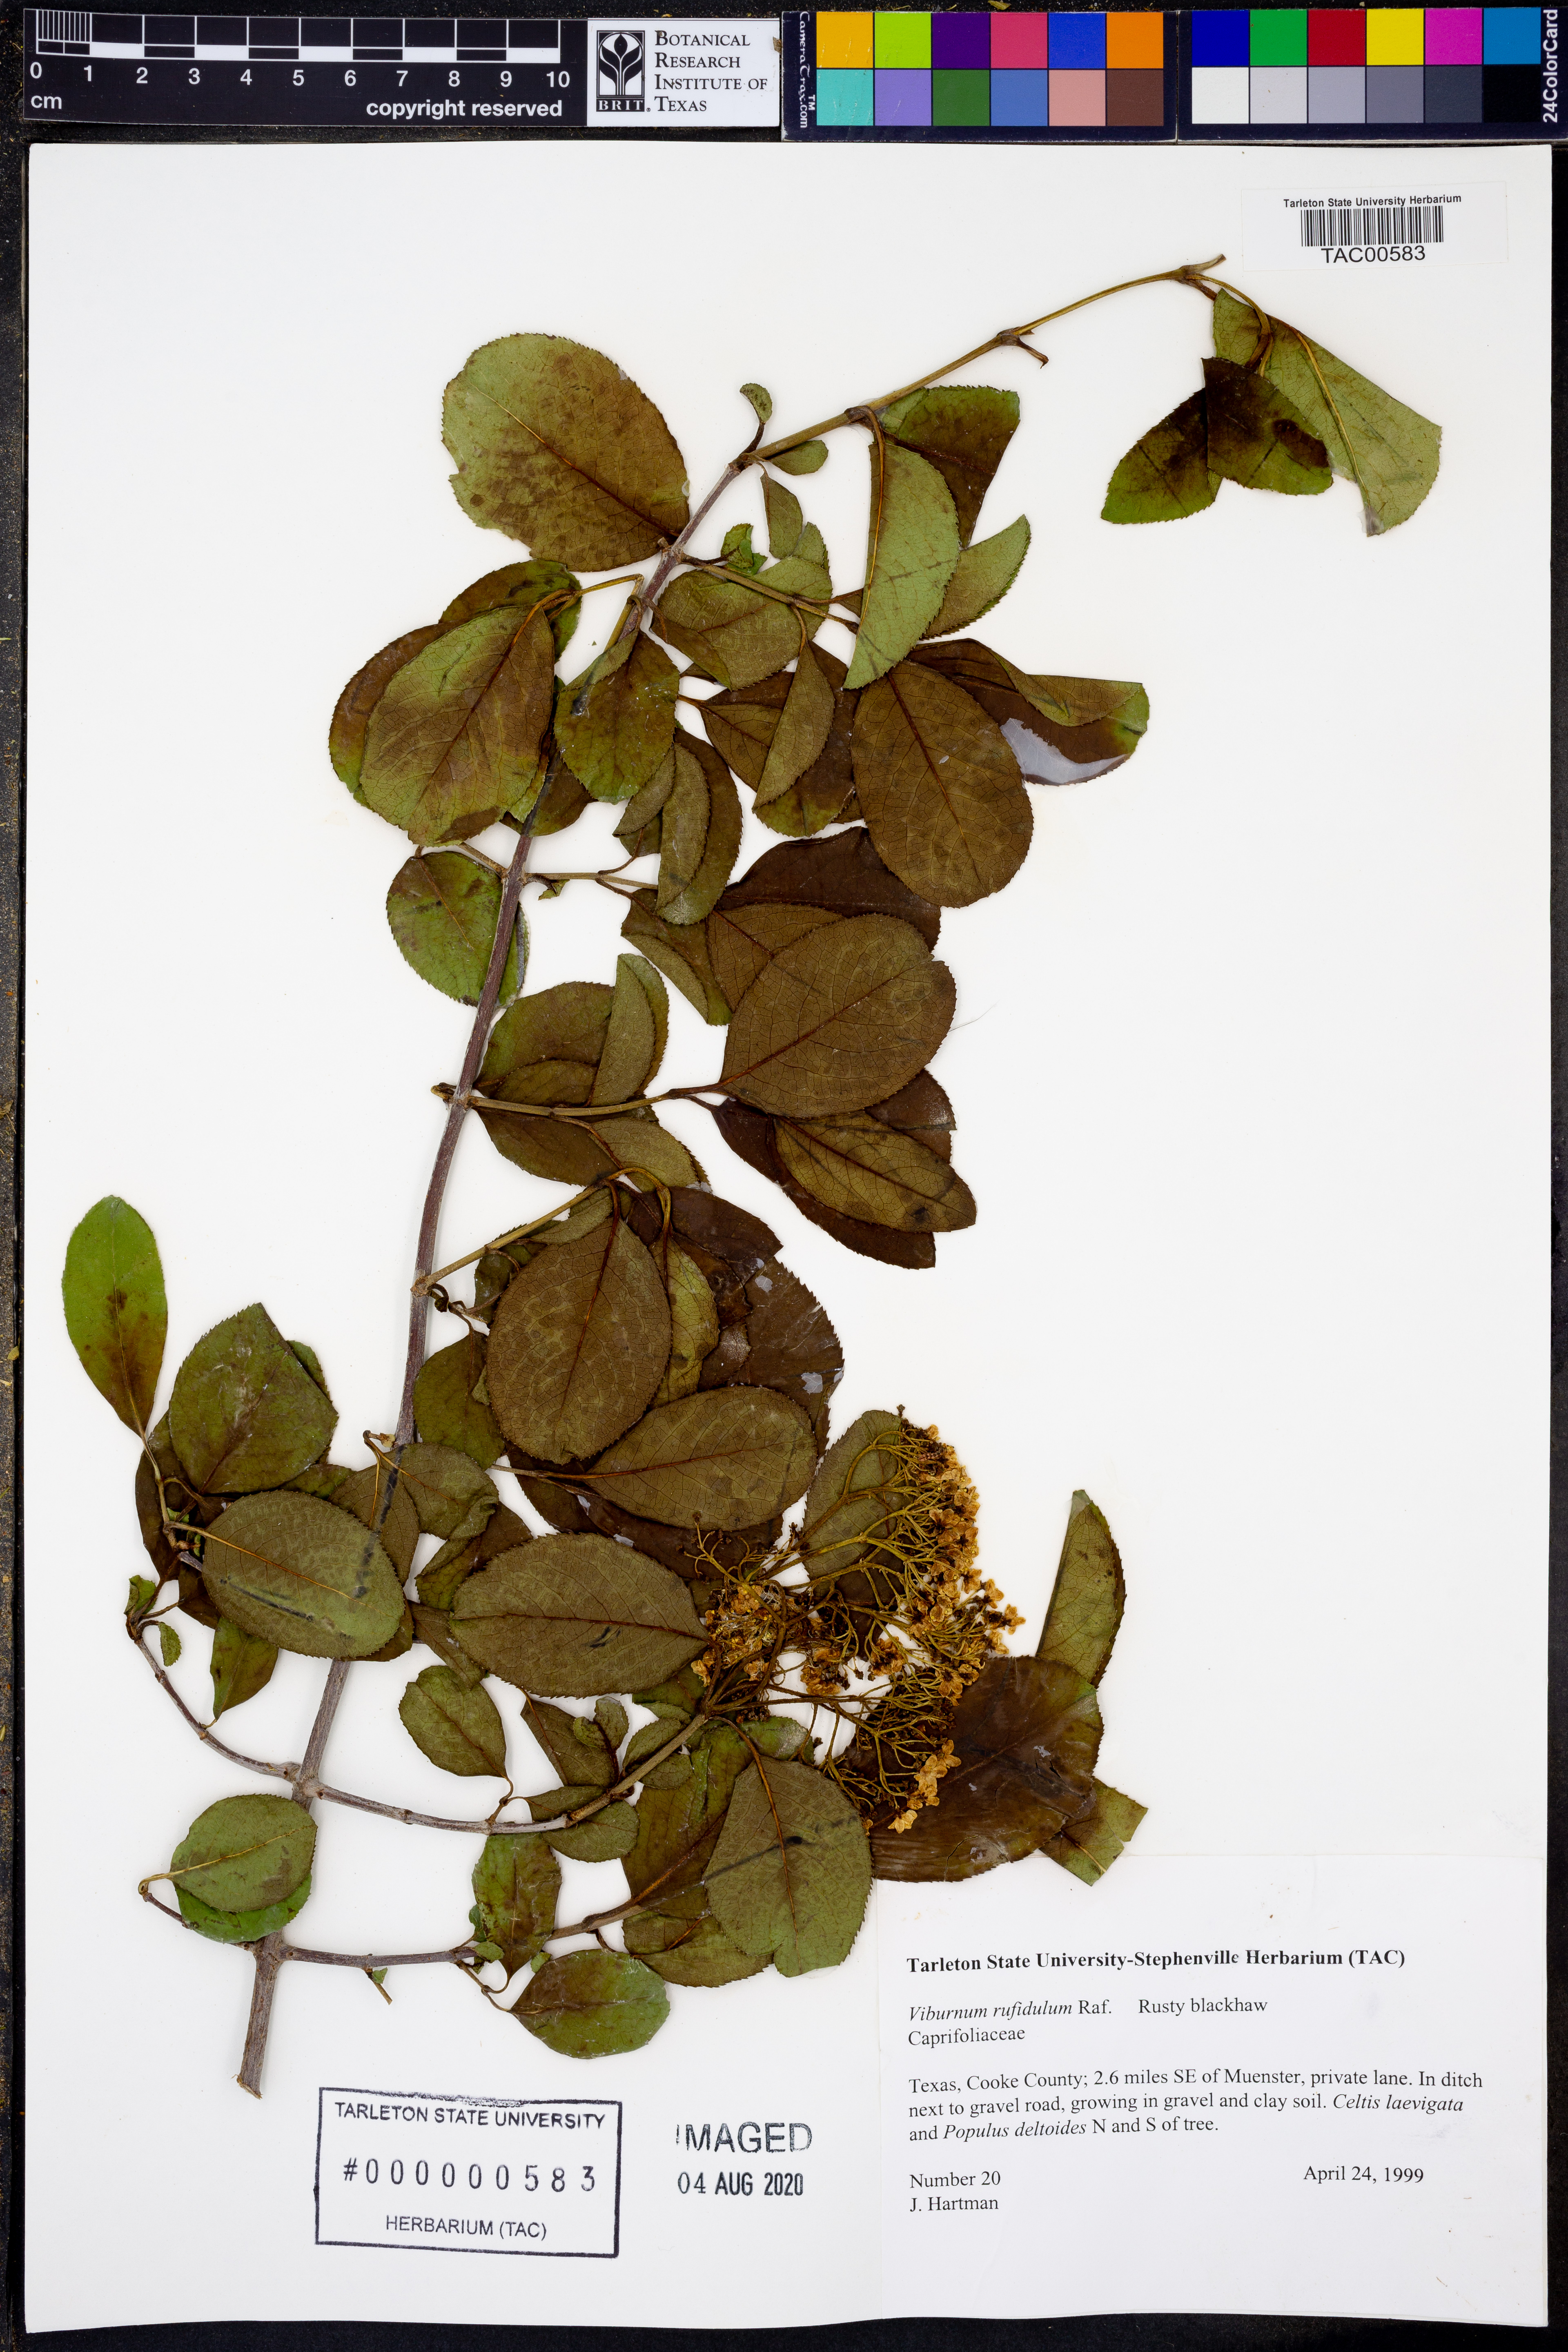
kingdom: Plantae
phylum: Tracheophyta
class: Magnoliopsida
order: Dipsacales
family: Viburnaceae
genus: Viburnum
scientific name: Viburnum rufidulum
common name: Blue haw
